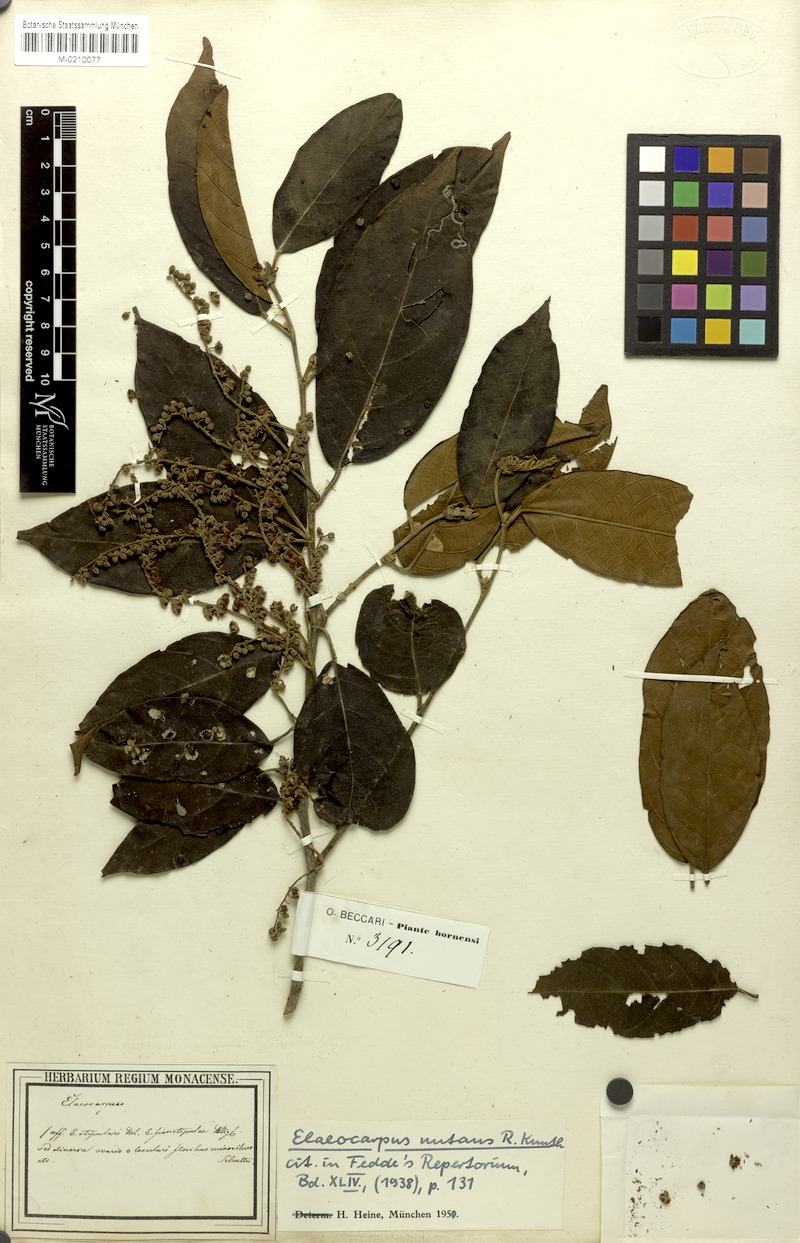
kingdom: Plantae
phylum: Tracheophyta
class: Magnoliopsida
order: Oxalidales
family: Elaeocarpaceae
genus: Elaeocarpus
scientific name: Elaeocarpus stipularis
